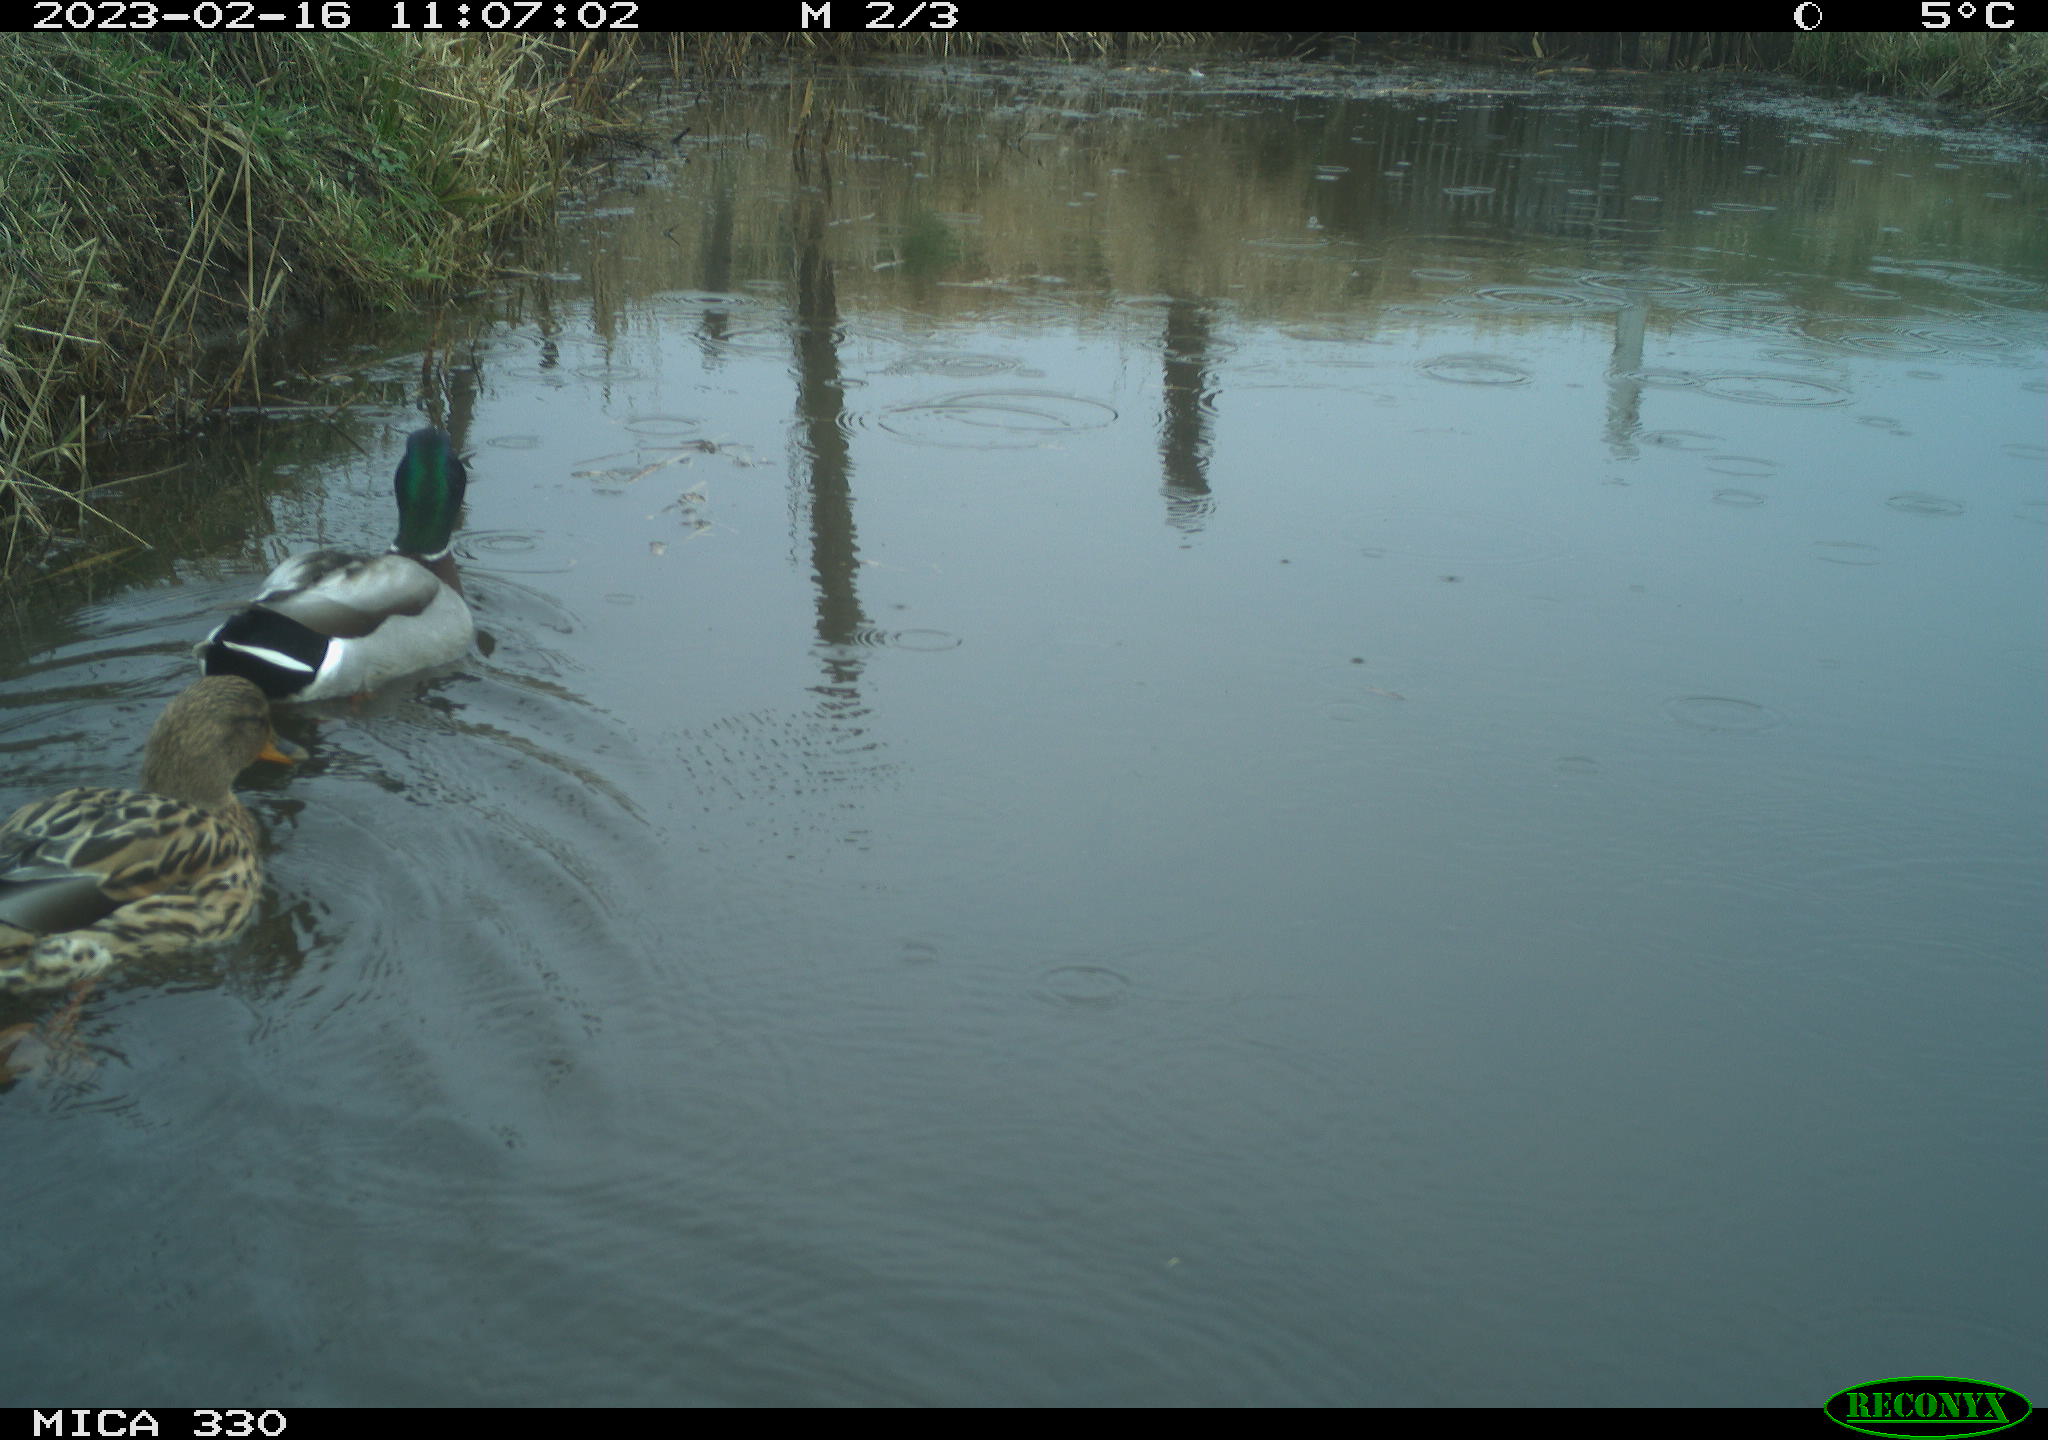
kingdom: Animalia
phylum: Chordata
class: Aves
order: Anseriformes
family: Anatidae
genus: Anas
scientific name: Anas
